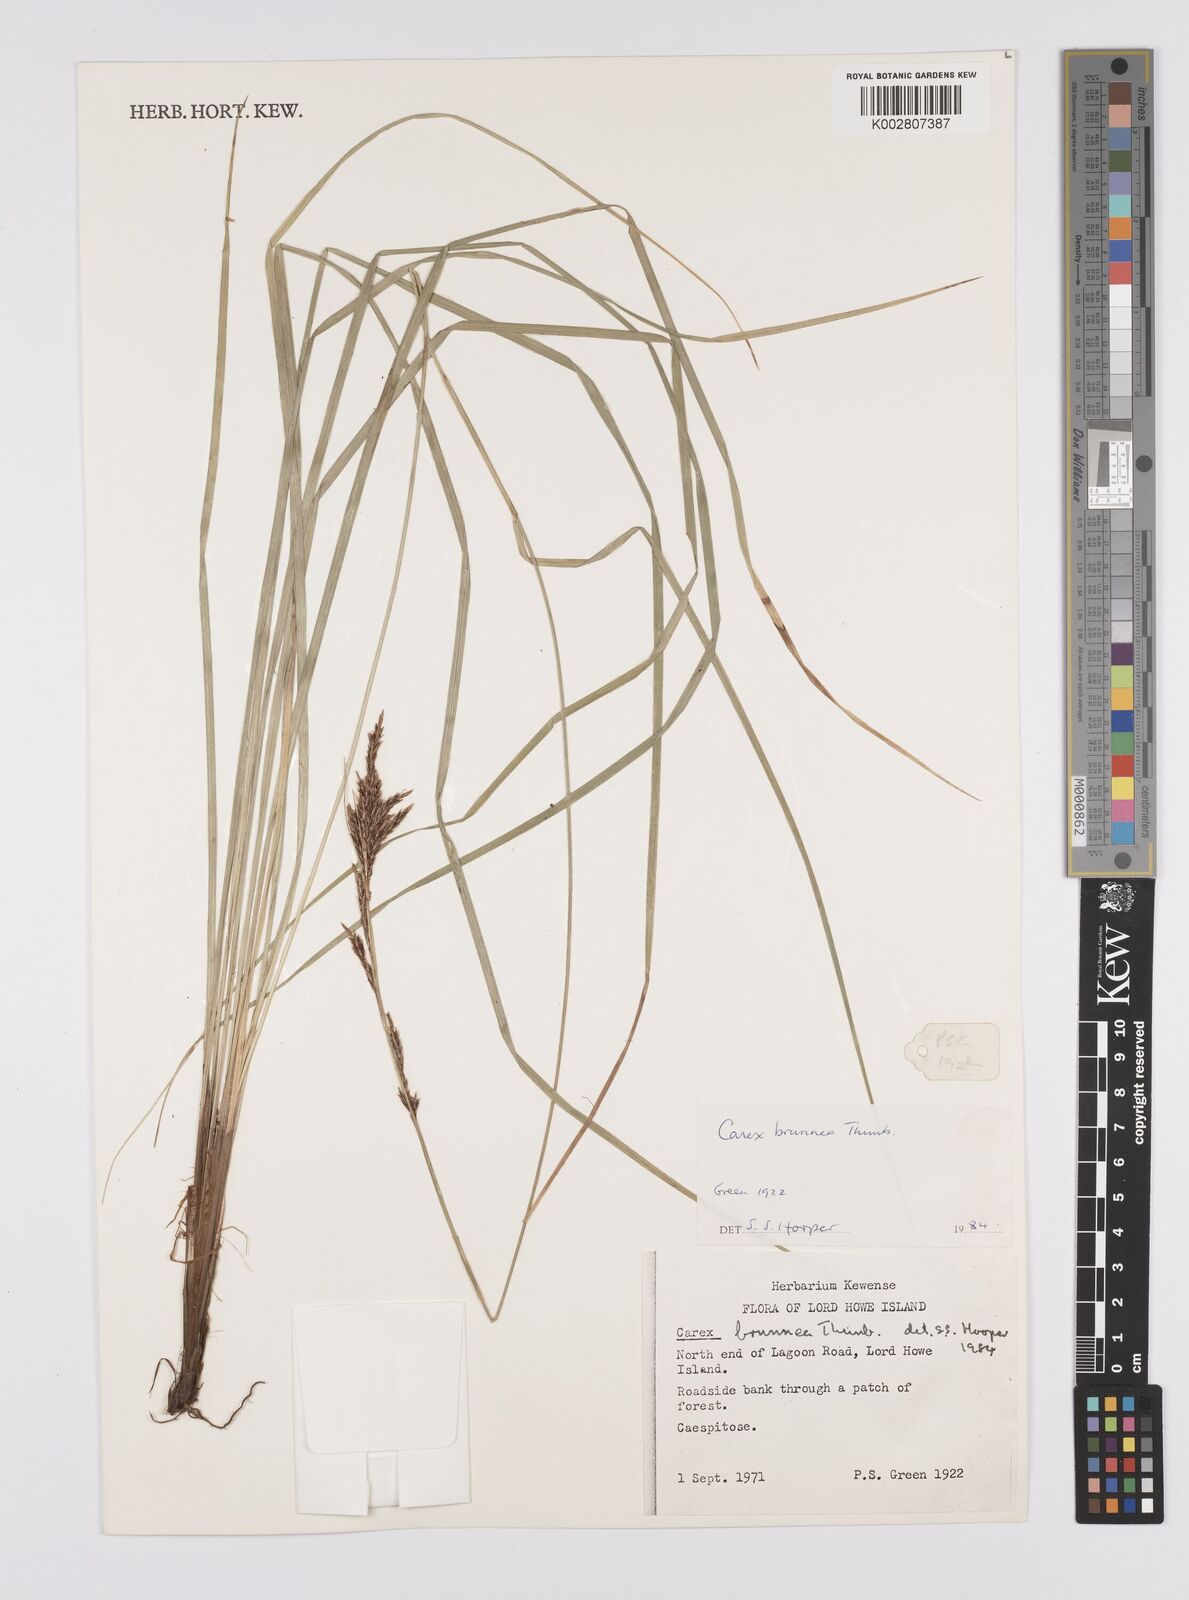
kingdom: Plantae
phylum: Tracheophyta
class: Liliopsida
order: Poales
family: Cyperaceae
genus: Carex
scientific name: Carex hattoriana
